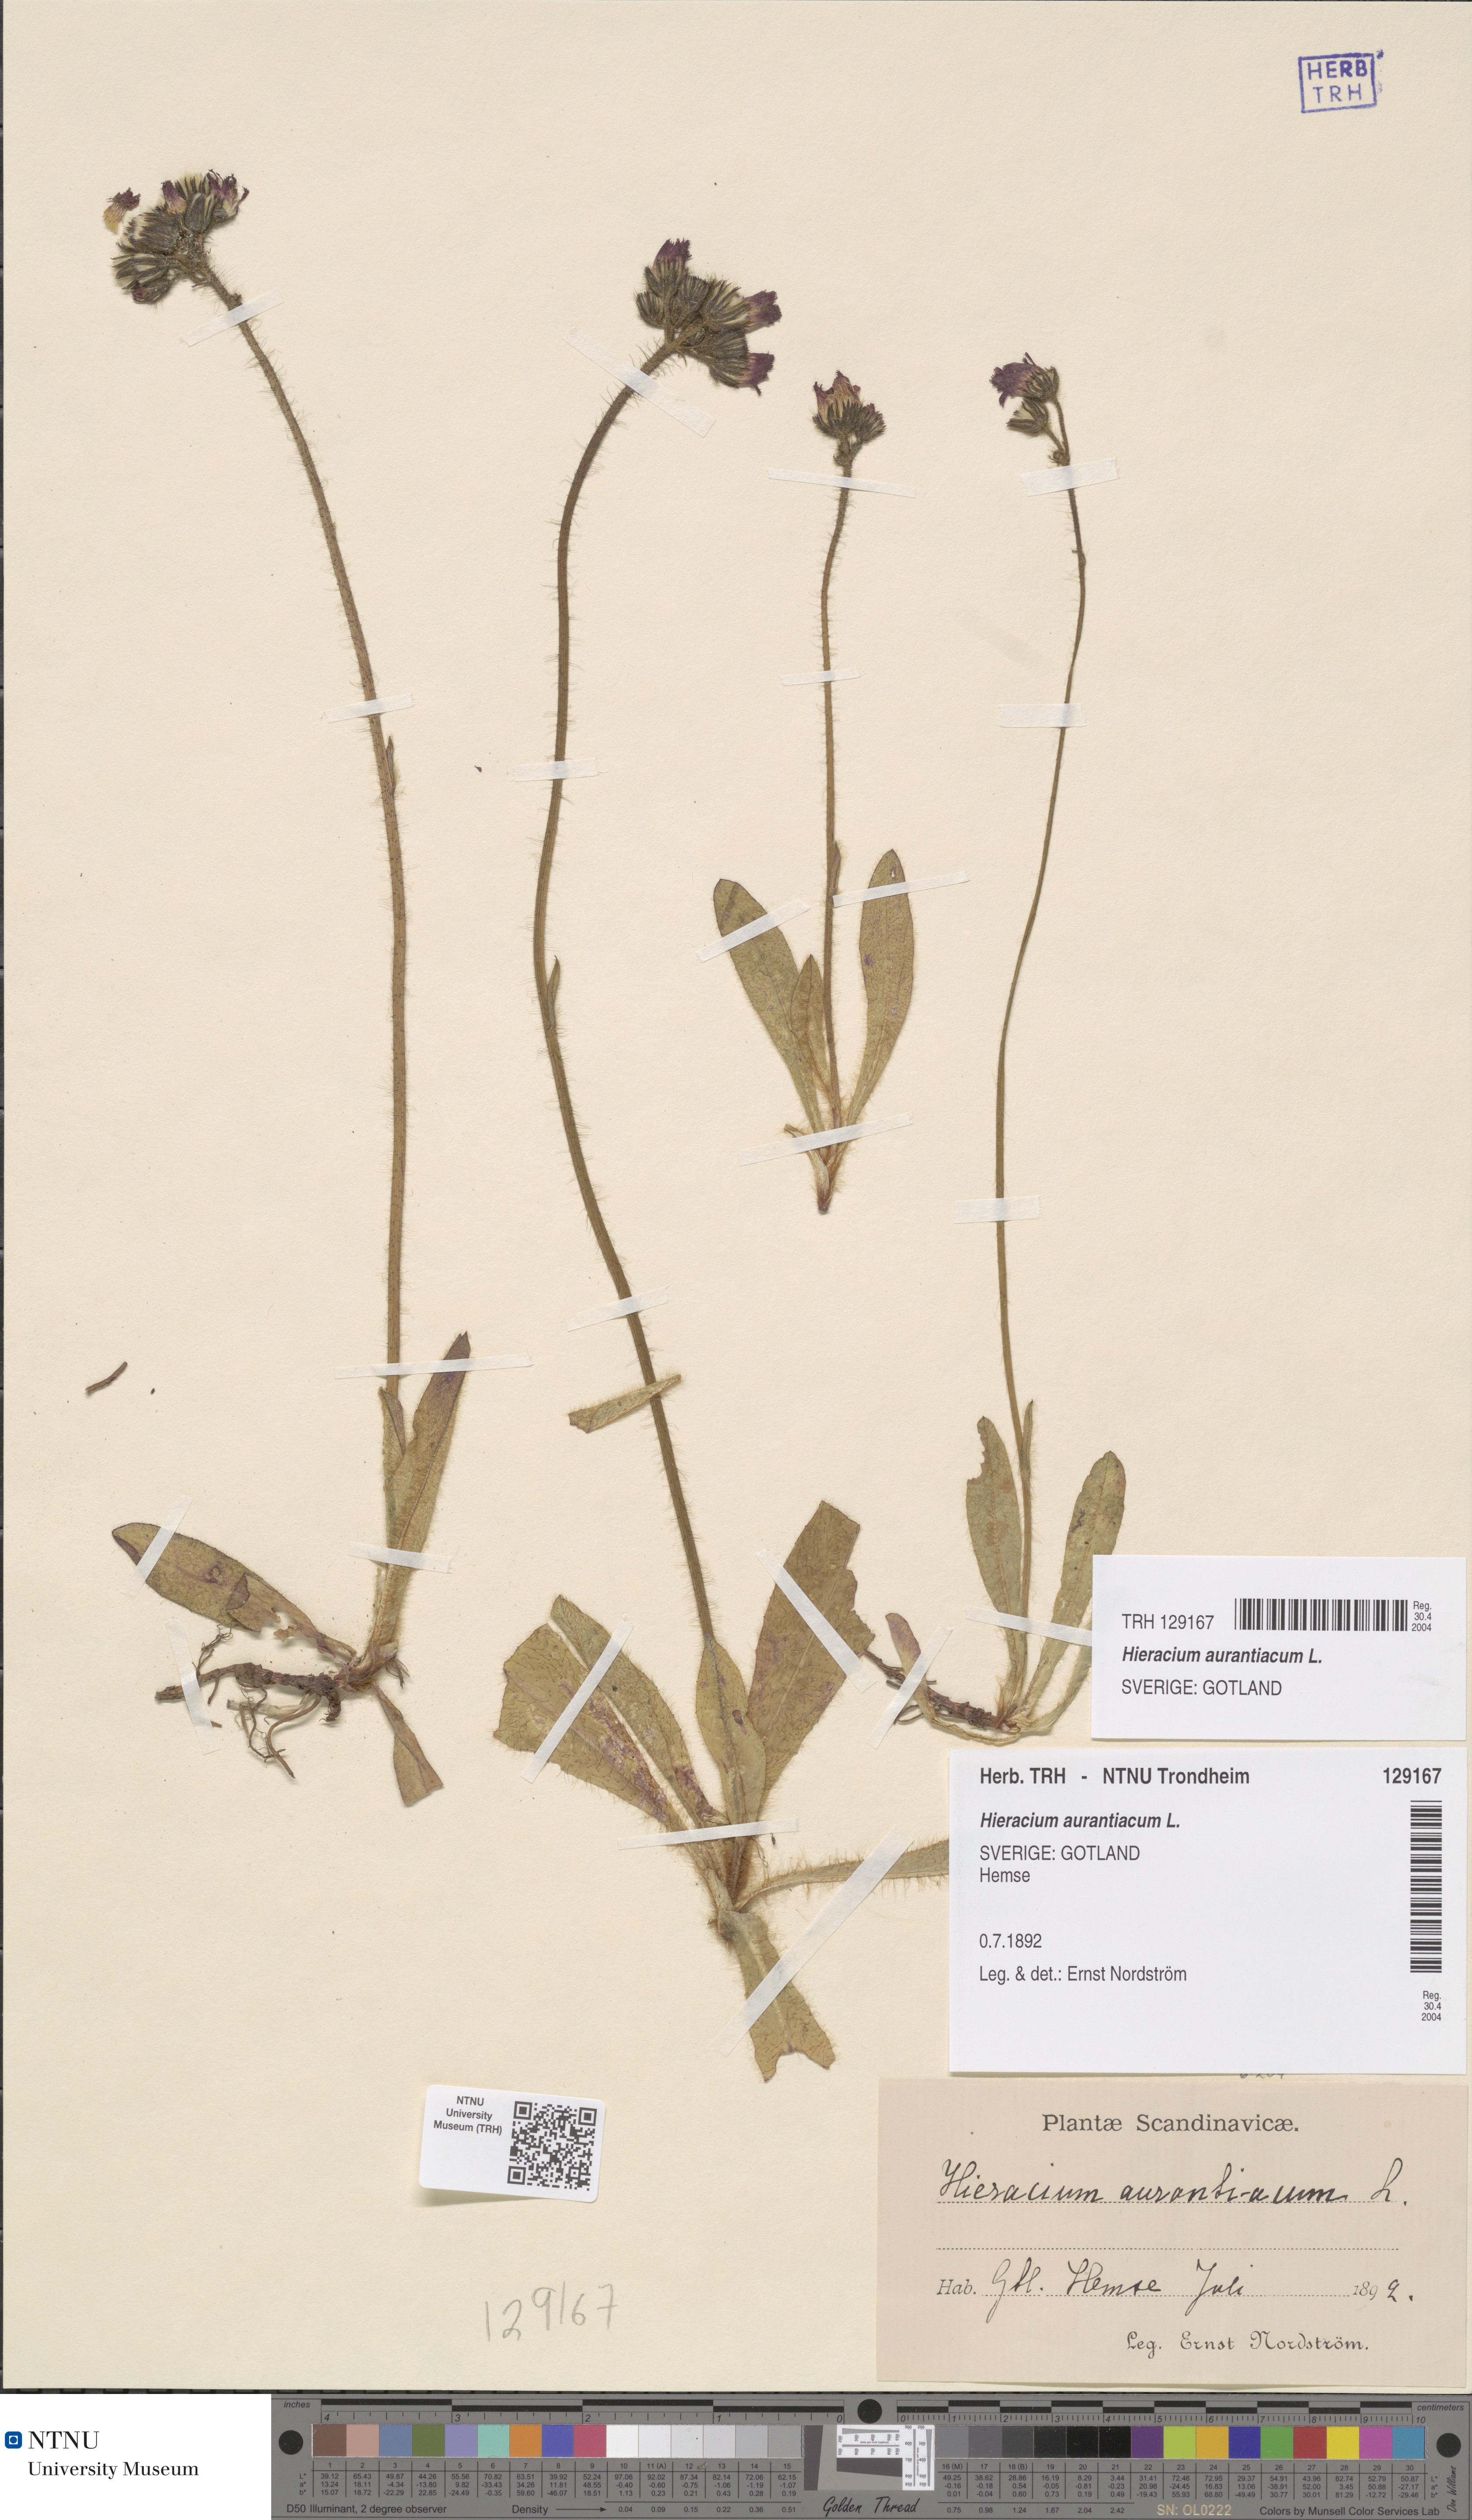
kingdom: Plantae
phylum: Tracheophyta
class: Magnoliopsida
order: Asterales
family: Asteraceae
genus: Pilosella
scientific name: Pilosella aurantiaca
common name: Fox-and-cubs
